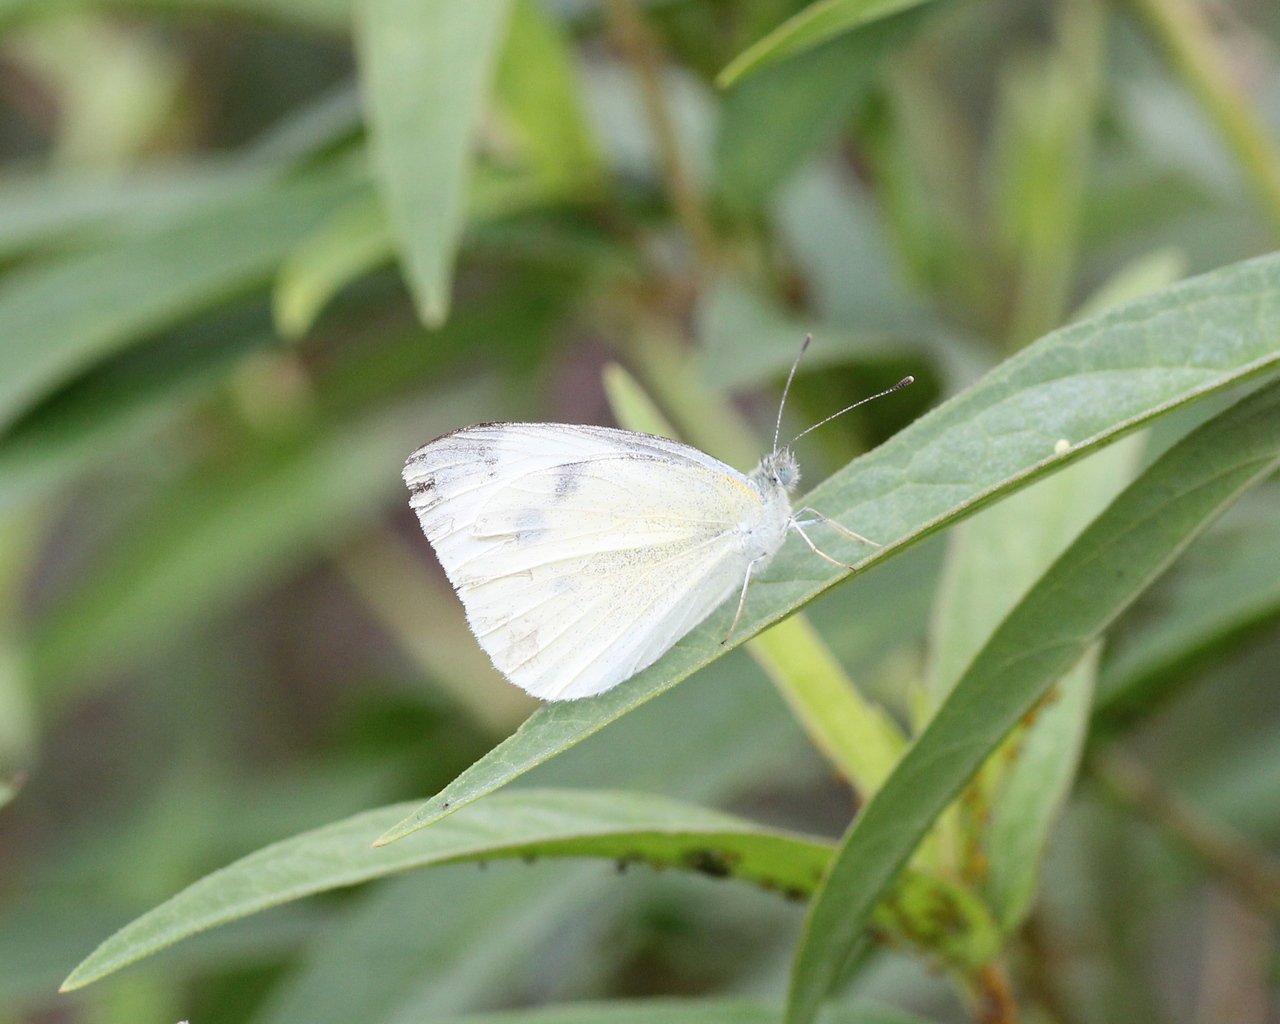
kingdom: Animalia
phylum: Arthropoda
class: Insecta
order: Lepidoptera
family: Pieridae
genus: Pieris
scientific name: Pieris rapae
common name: Cabbage White
